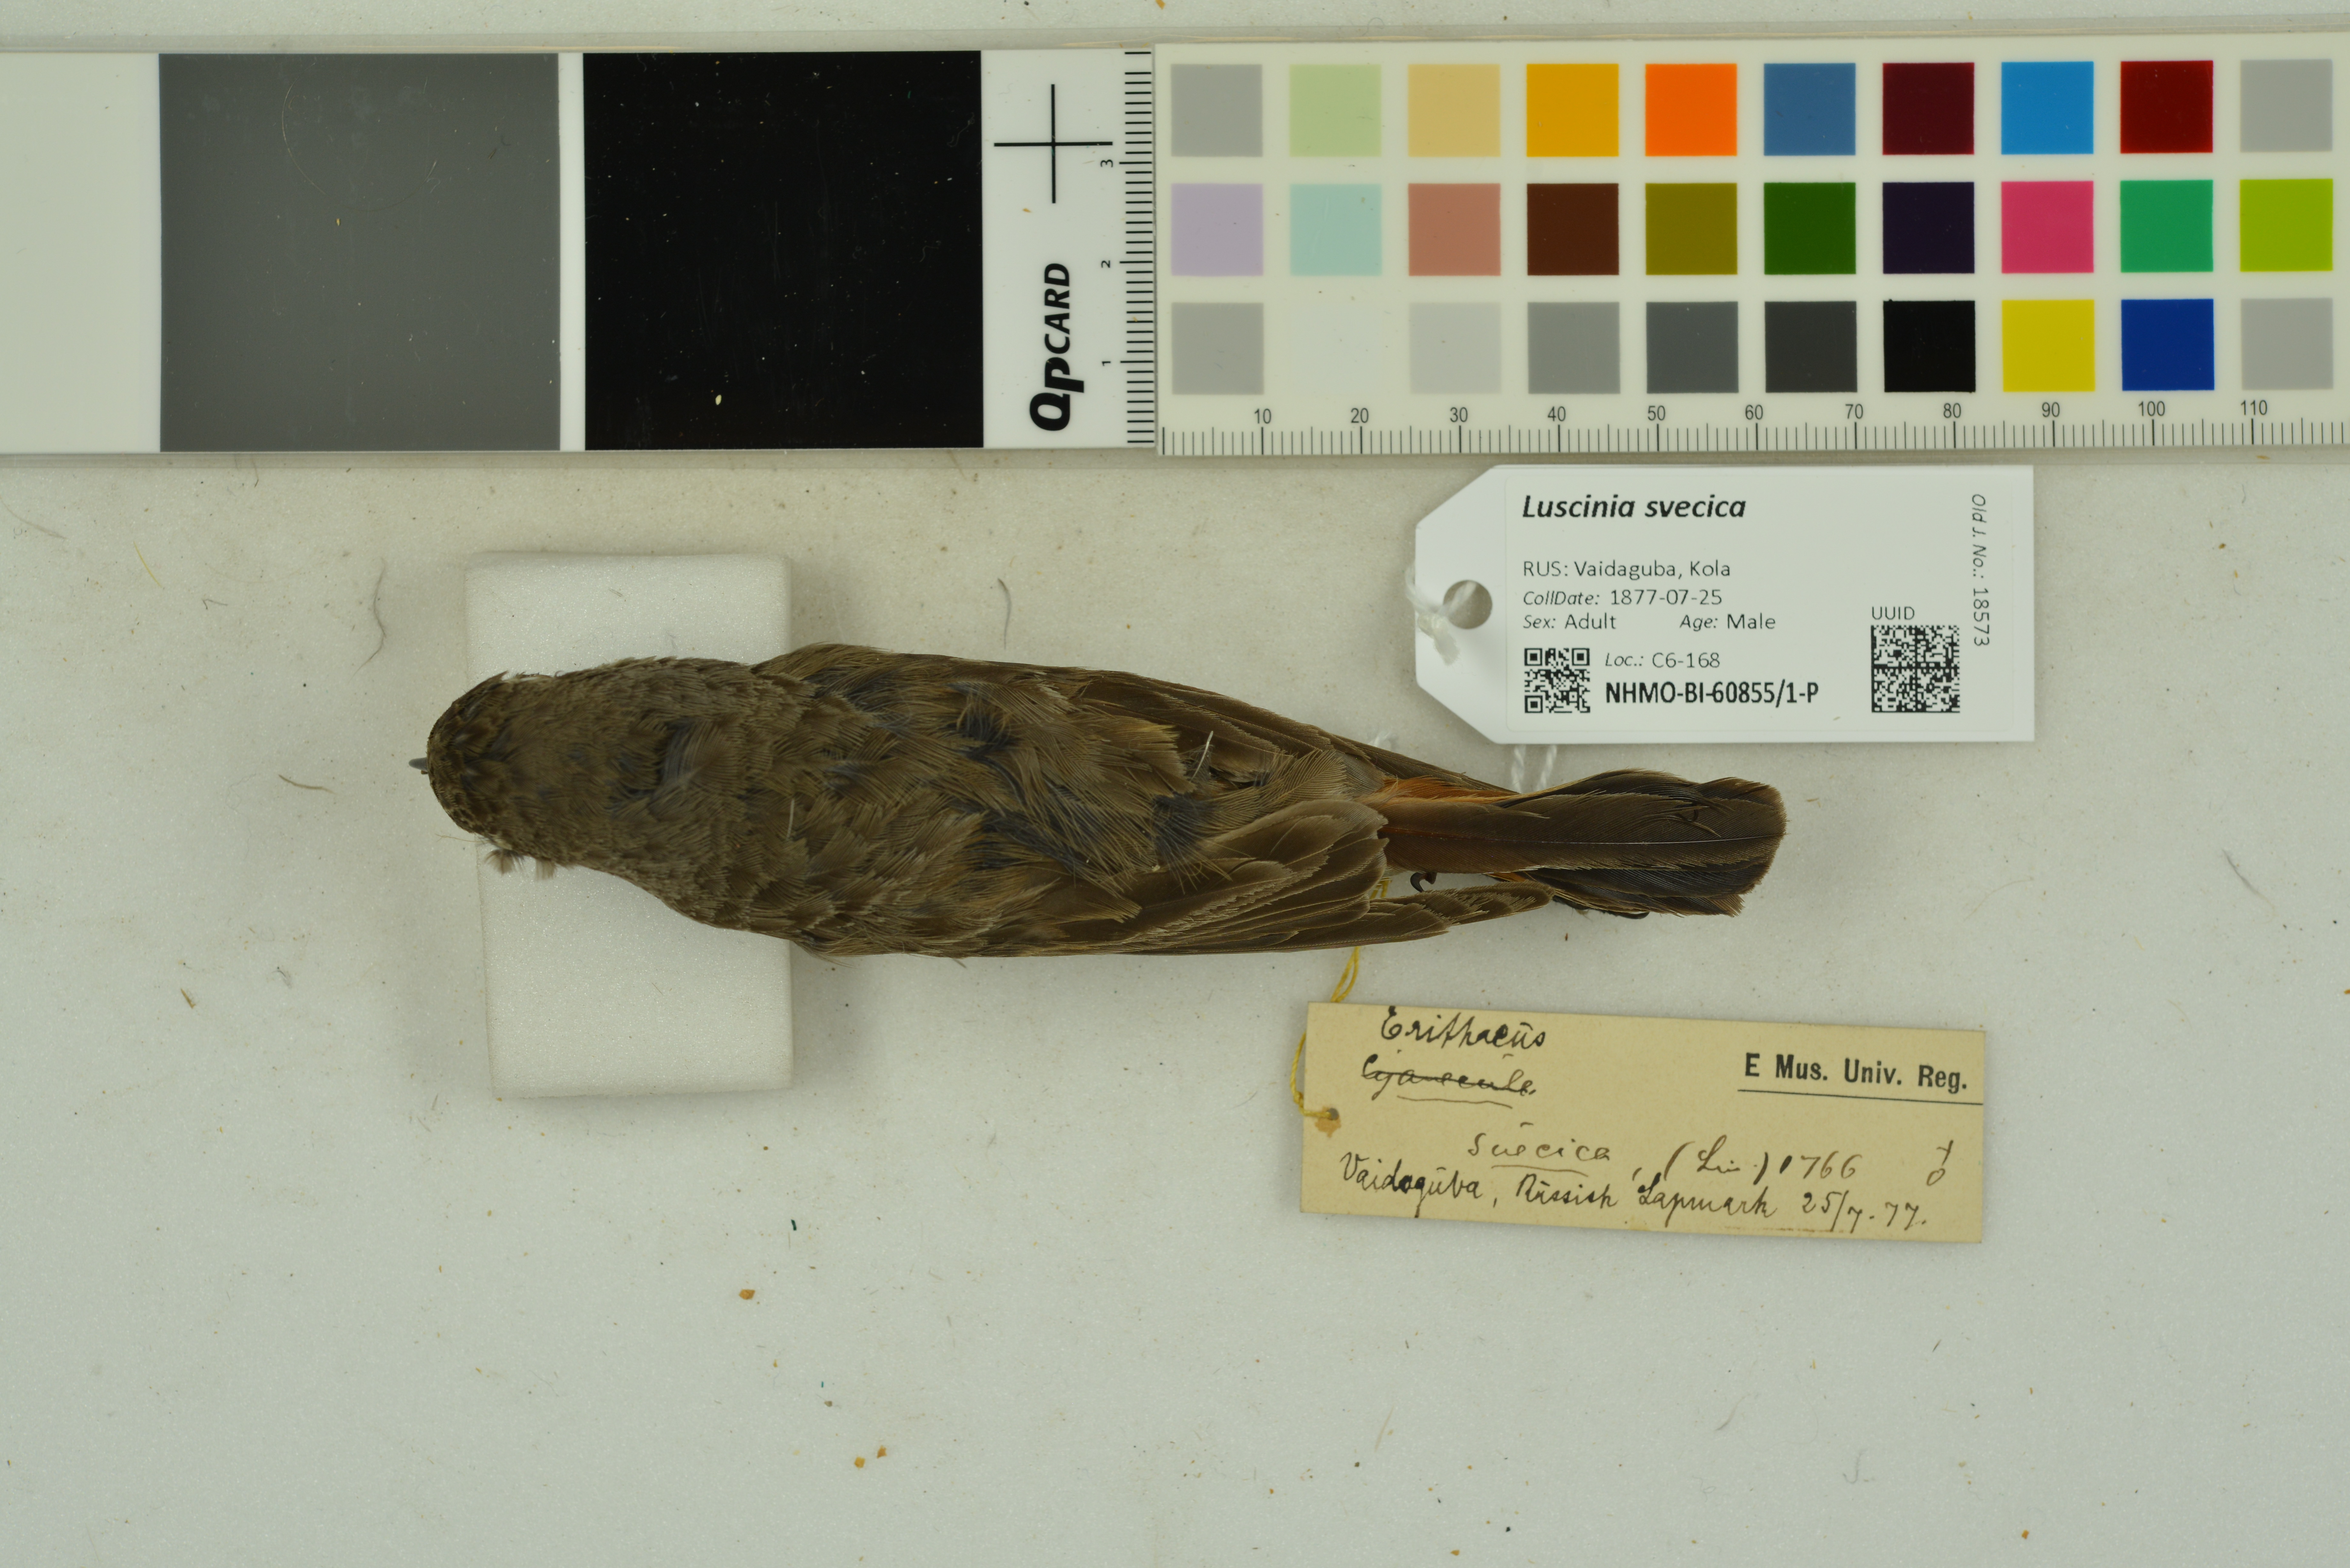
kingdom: Animalia
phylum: Chordata
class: Aves
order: Passeriformes
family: Muscicapidae
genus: Luscinia
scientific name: Luscinia svecica
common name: Bluethroat
